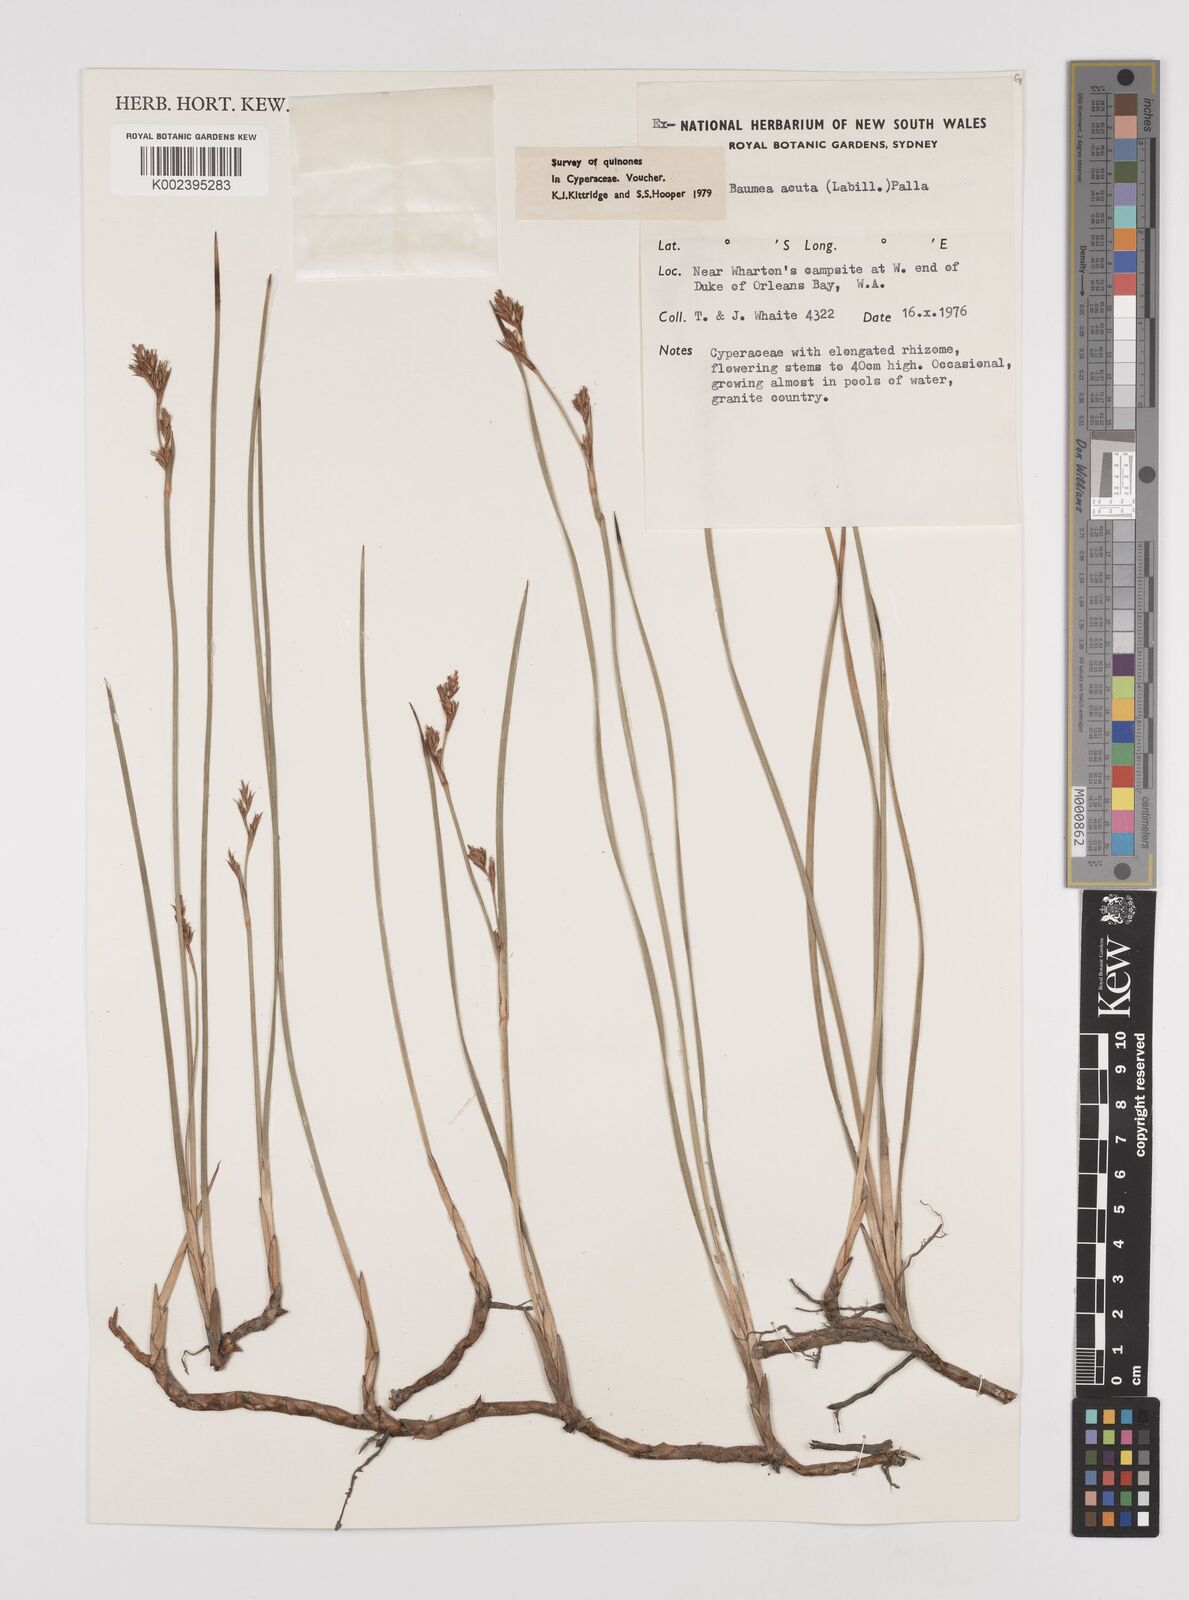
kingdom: Plantae
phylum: Tracheophyta
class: Liliopsida
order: Poales
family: Cyperaceae
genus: Machaerina
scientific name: Machaerina acuta
